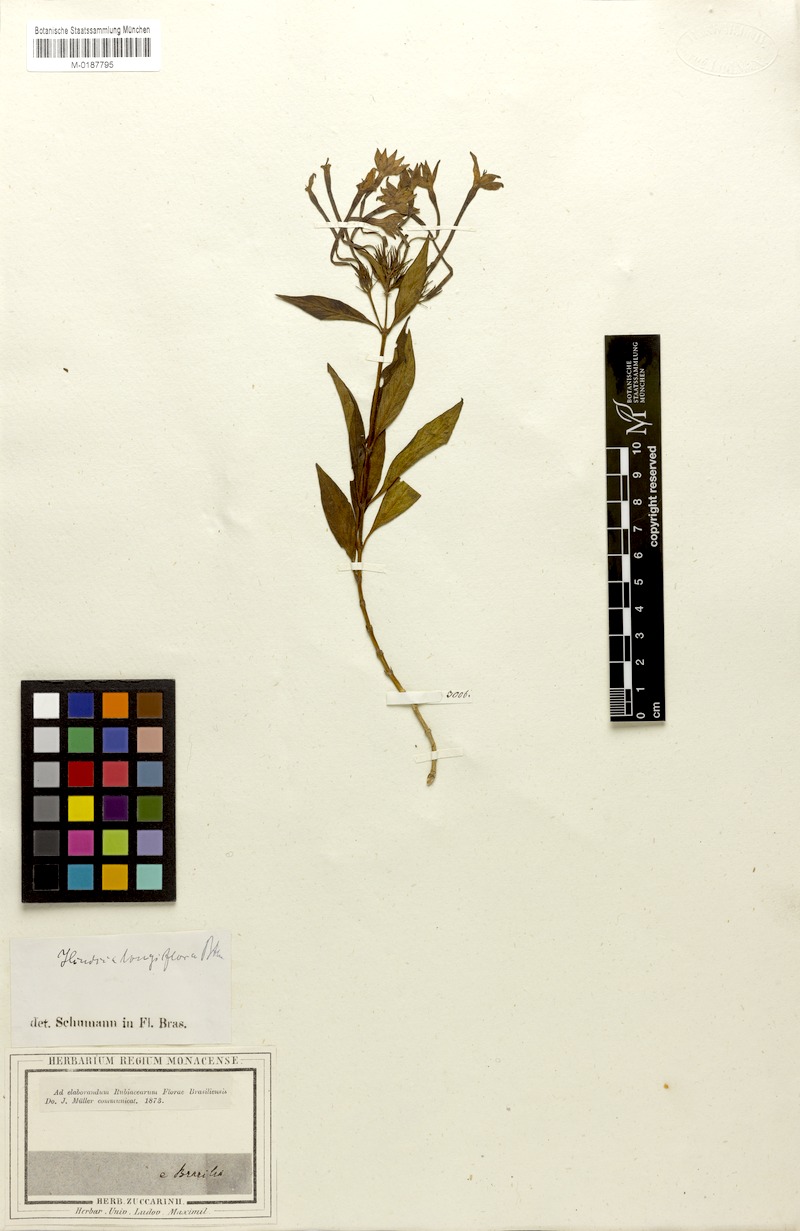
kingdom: Plantae
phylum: Tracheophyta
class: Magnoliopsida
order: Gentianales
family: Rubiaceae
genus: Hindsia
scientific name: Hindsia longiflora
